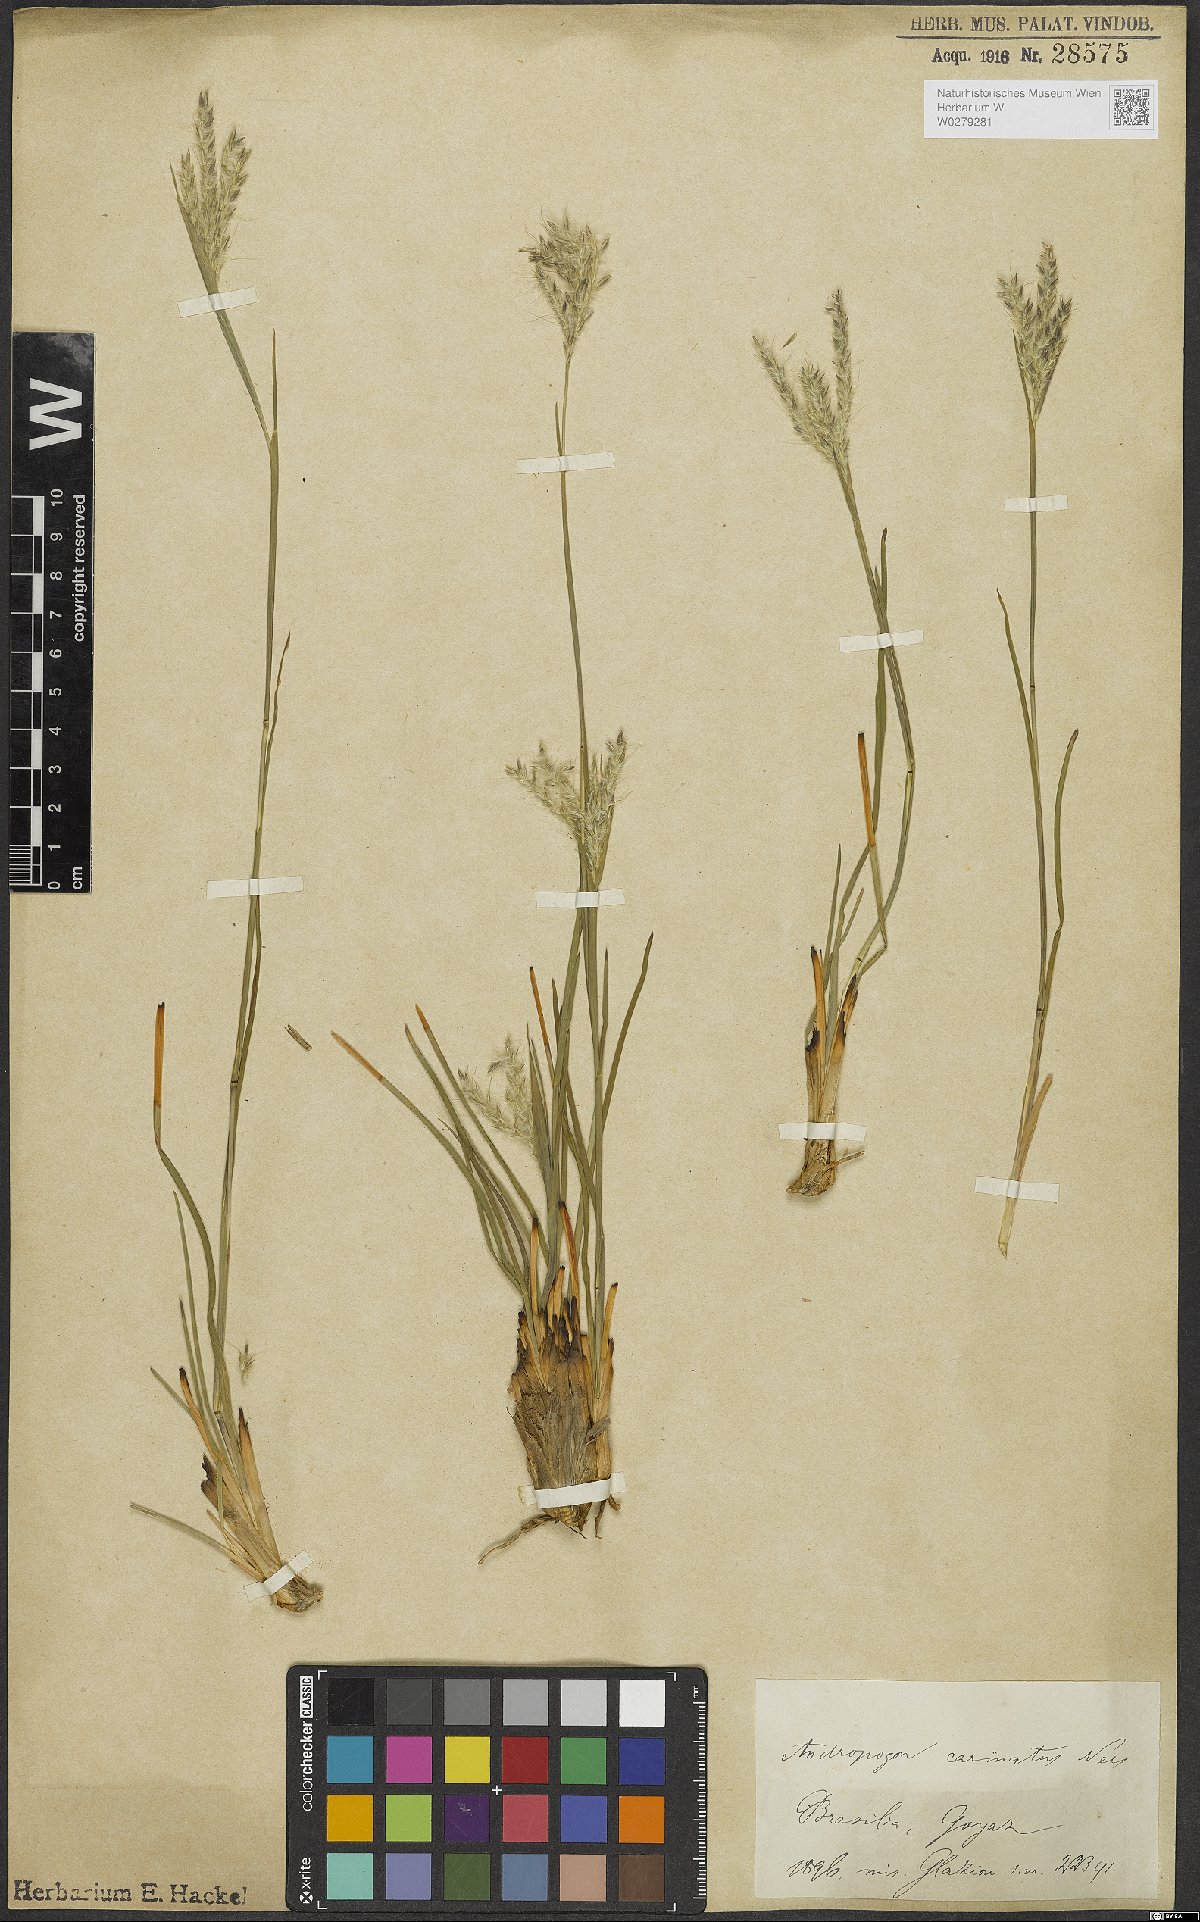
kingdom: Plantae
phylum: Tracheophyta
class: Liliopsida
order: Poales
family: Poaceae
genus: Andropogon
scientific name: Andropogon carinatus
